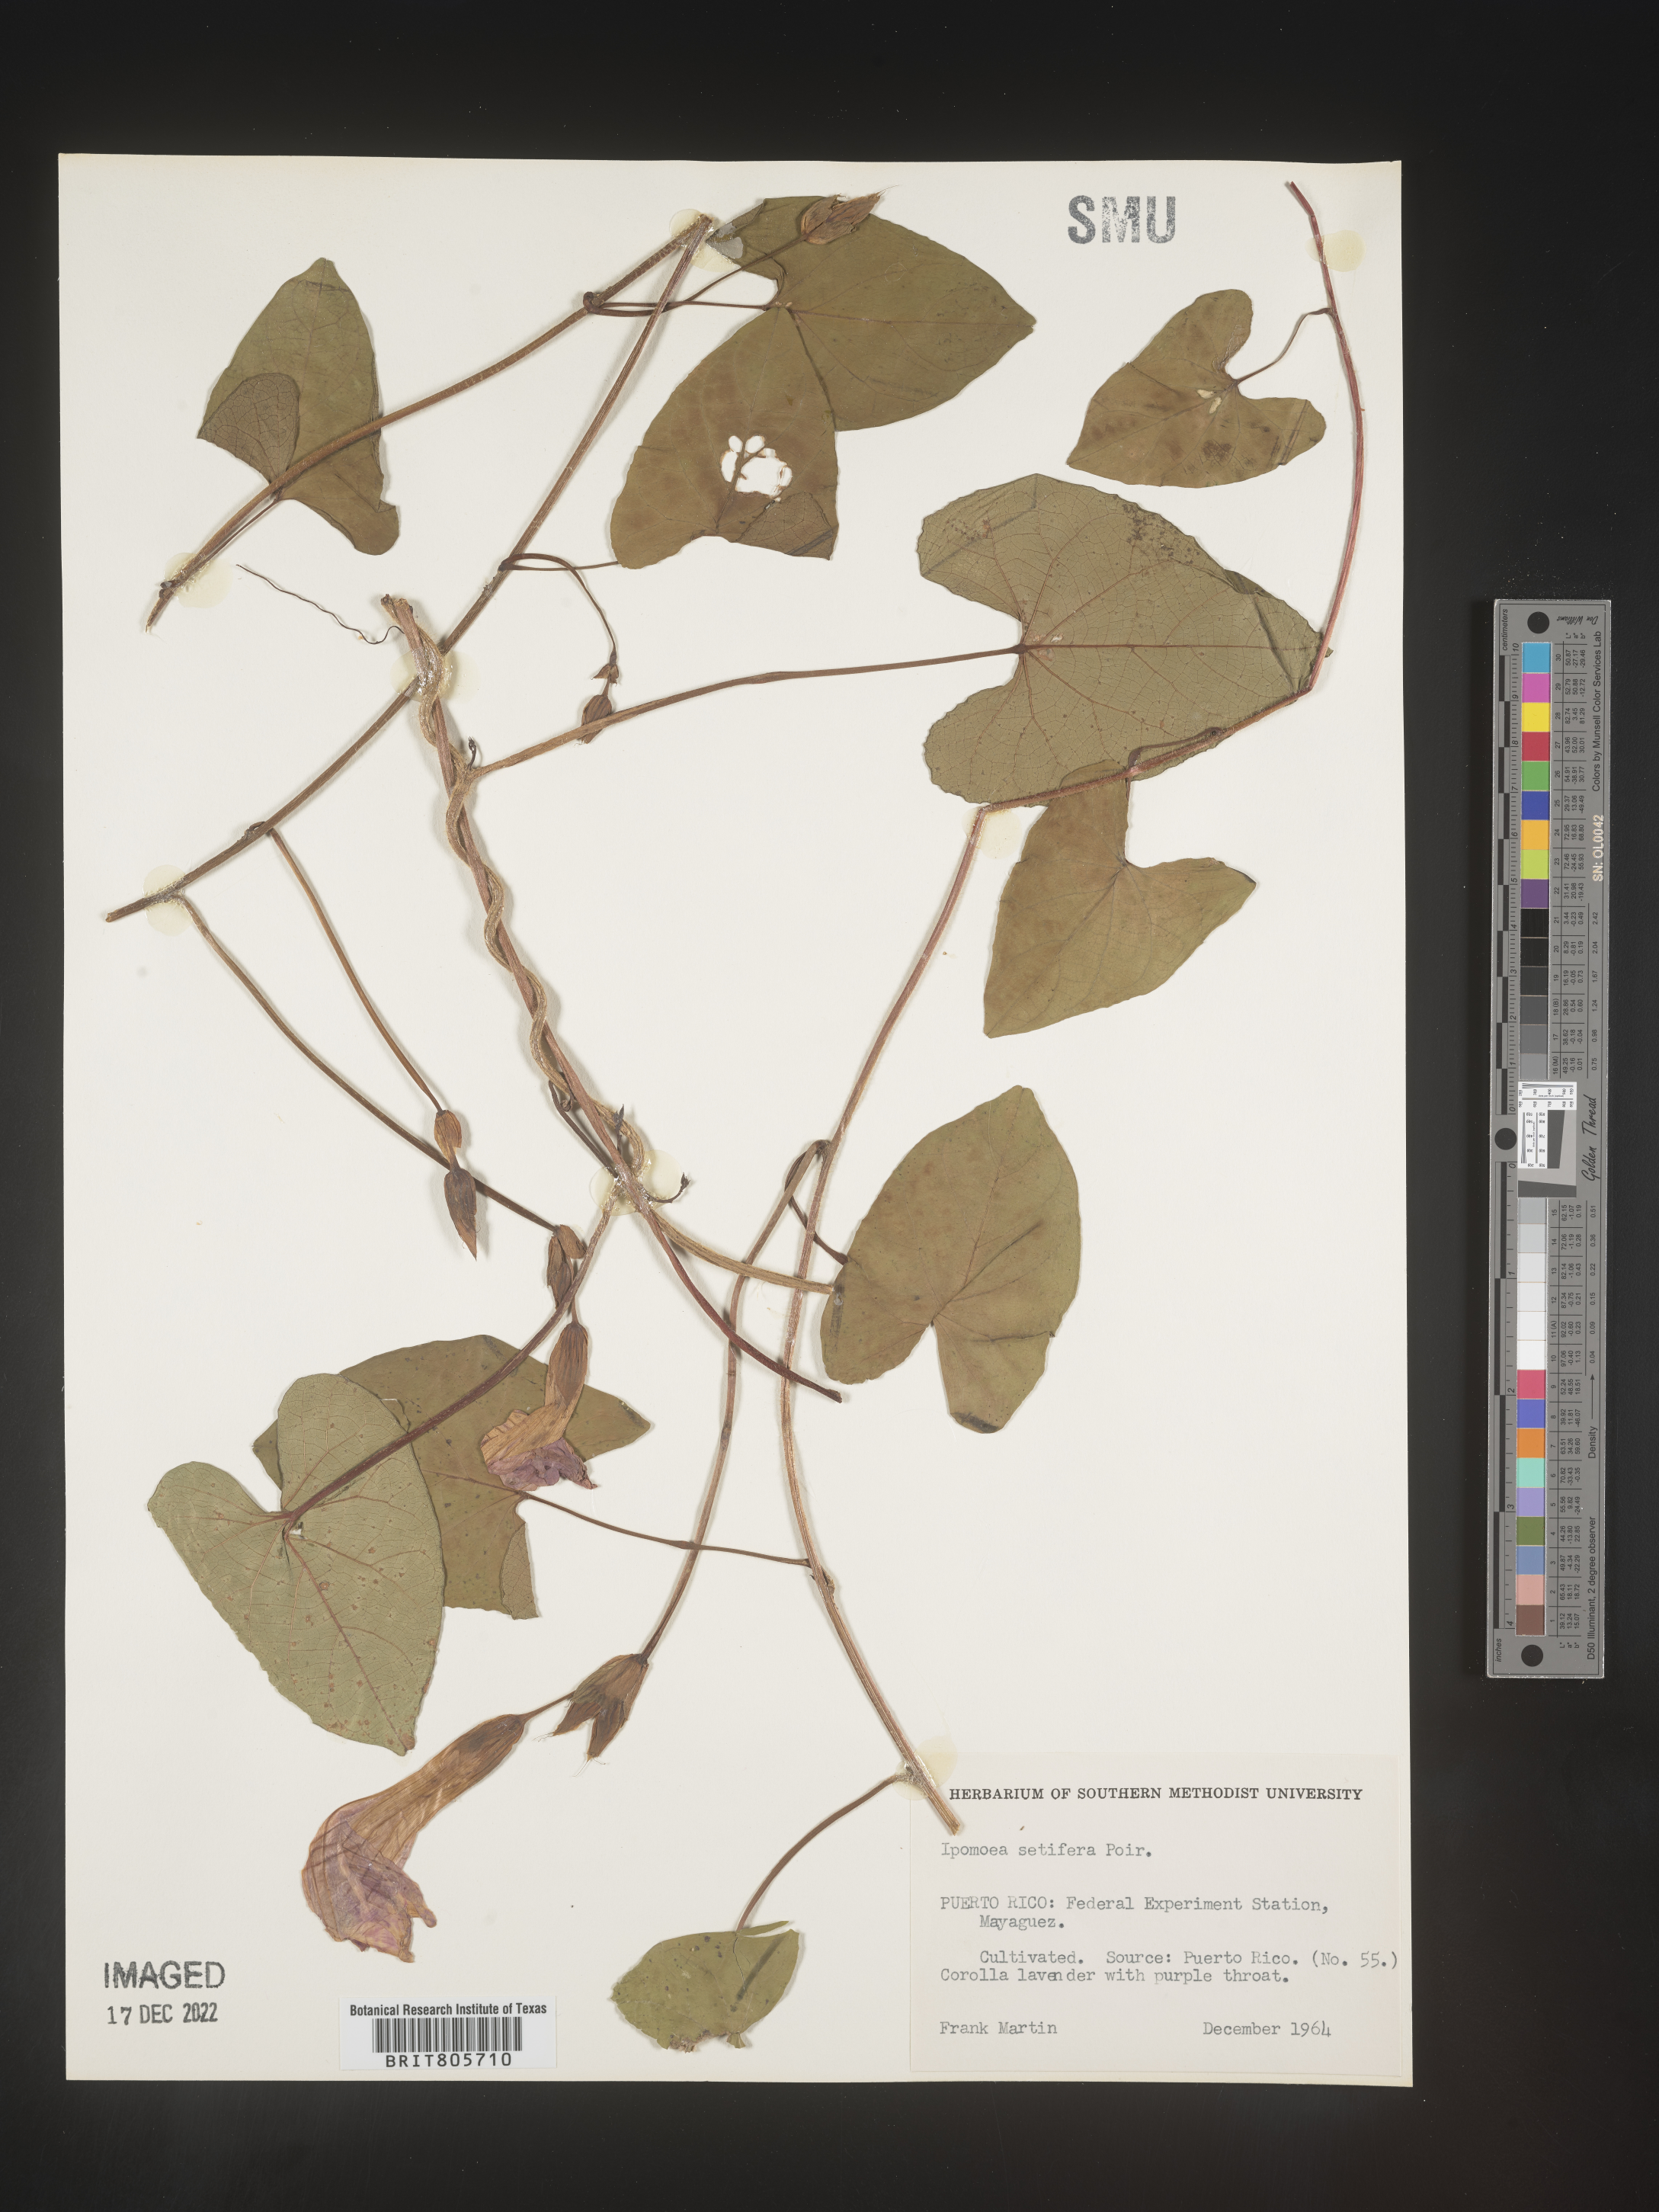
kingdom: Plantae
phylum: Tracheophyta
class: Magnoliopsida
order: Solanales
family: Convolvulaceae
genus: Ipomoea
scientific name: Ipomoea
